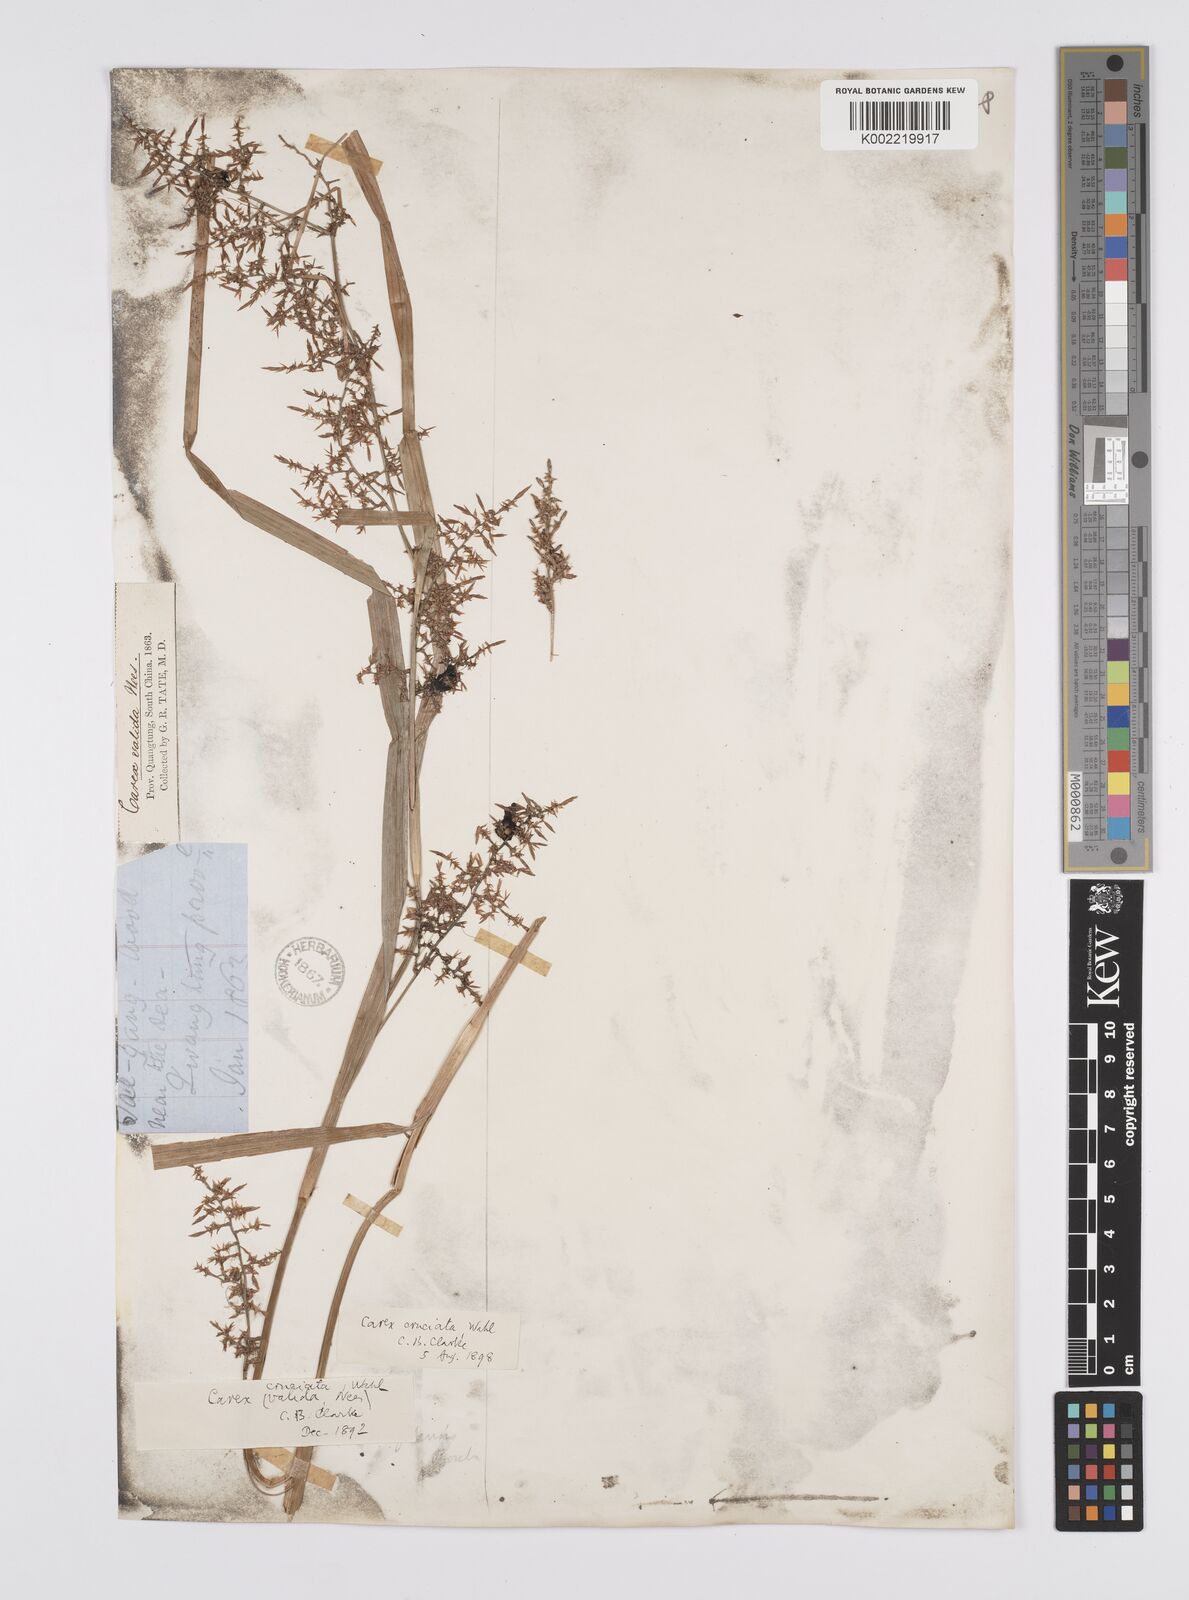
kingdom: Plantae
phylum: Tracheophyta
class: Liliopsida
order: Poales
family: Cyperaceae
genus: Carex
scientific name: Carex cruciata
